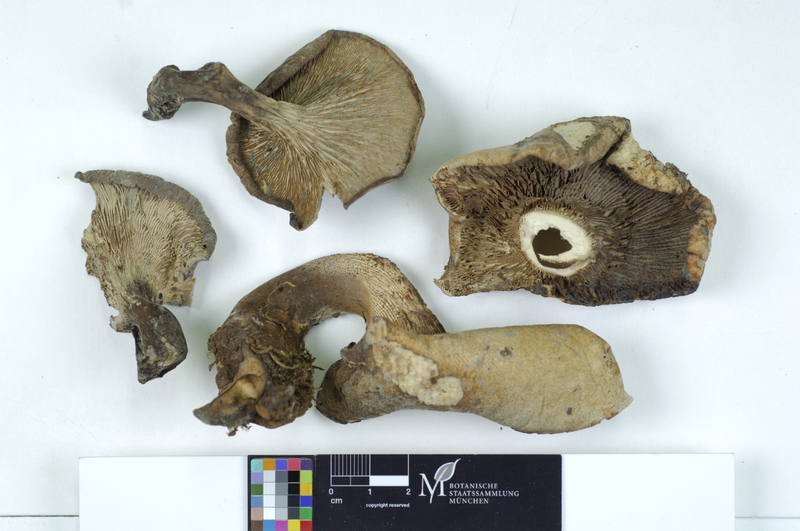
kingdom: Fungi
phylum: Basidiomycota
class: Agaricomycetes
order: Gloeophyllales
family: Gloeophyllaceae
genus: Neolentinus
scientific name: Neolentinus cyathiformis
